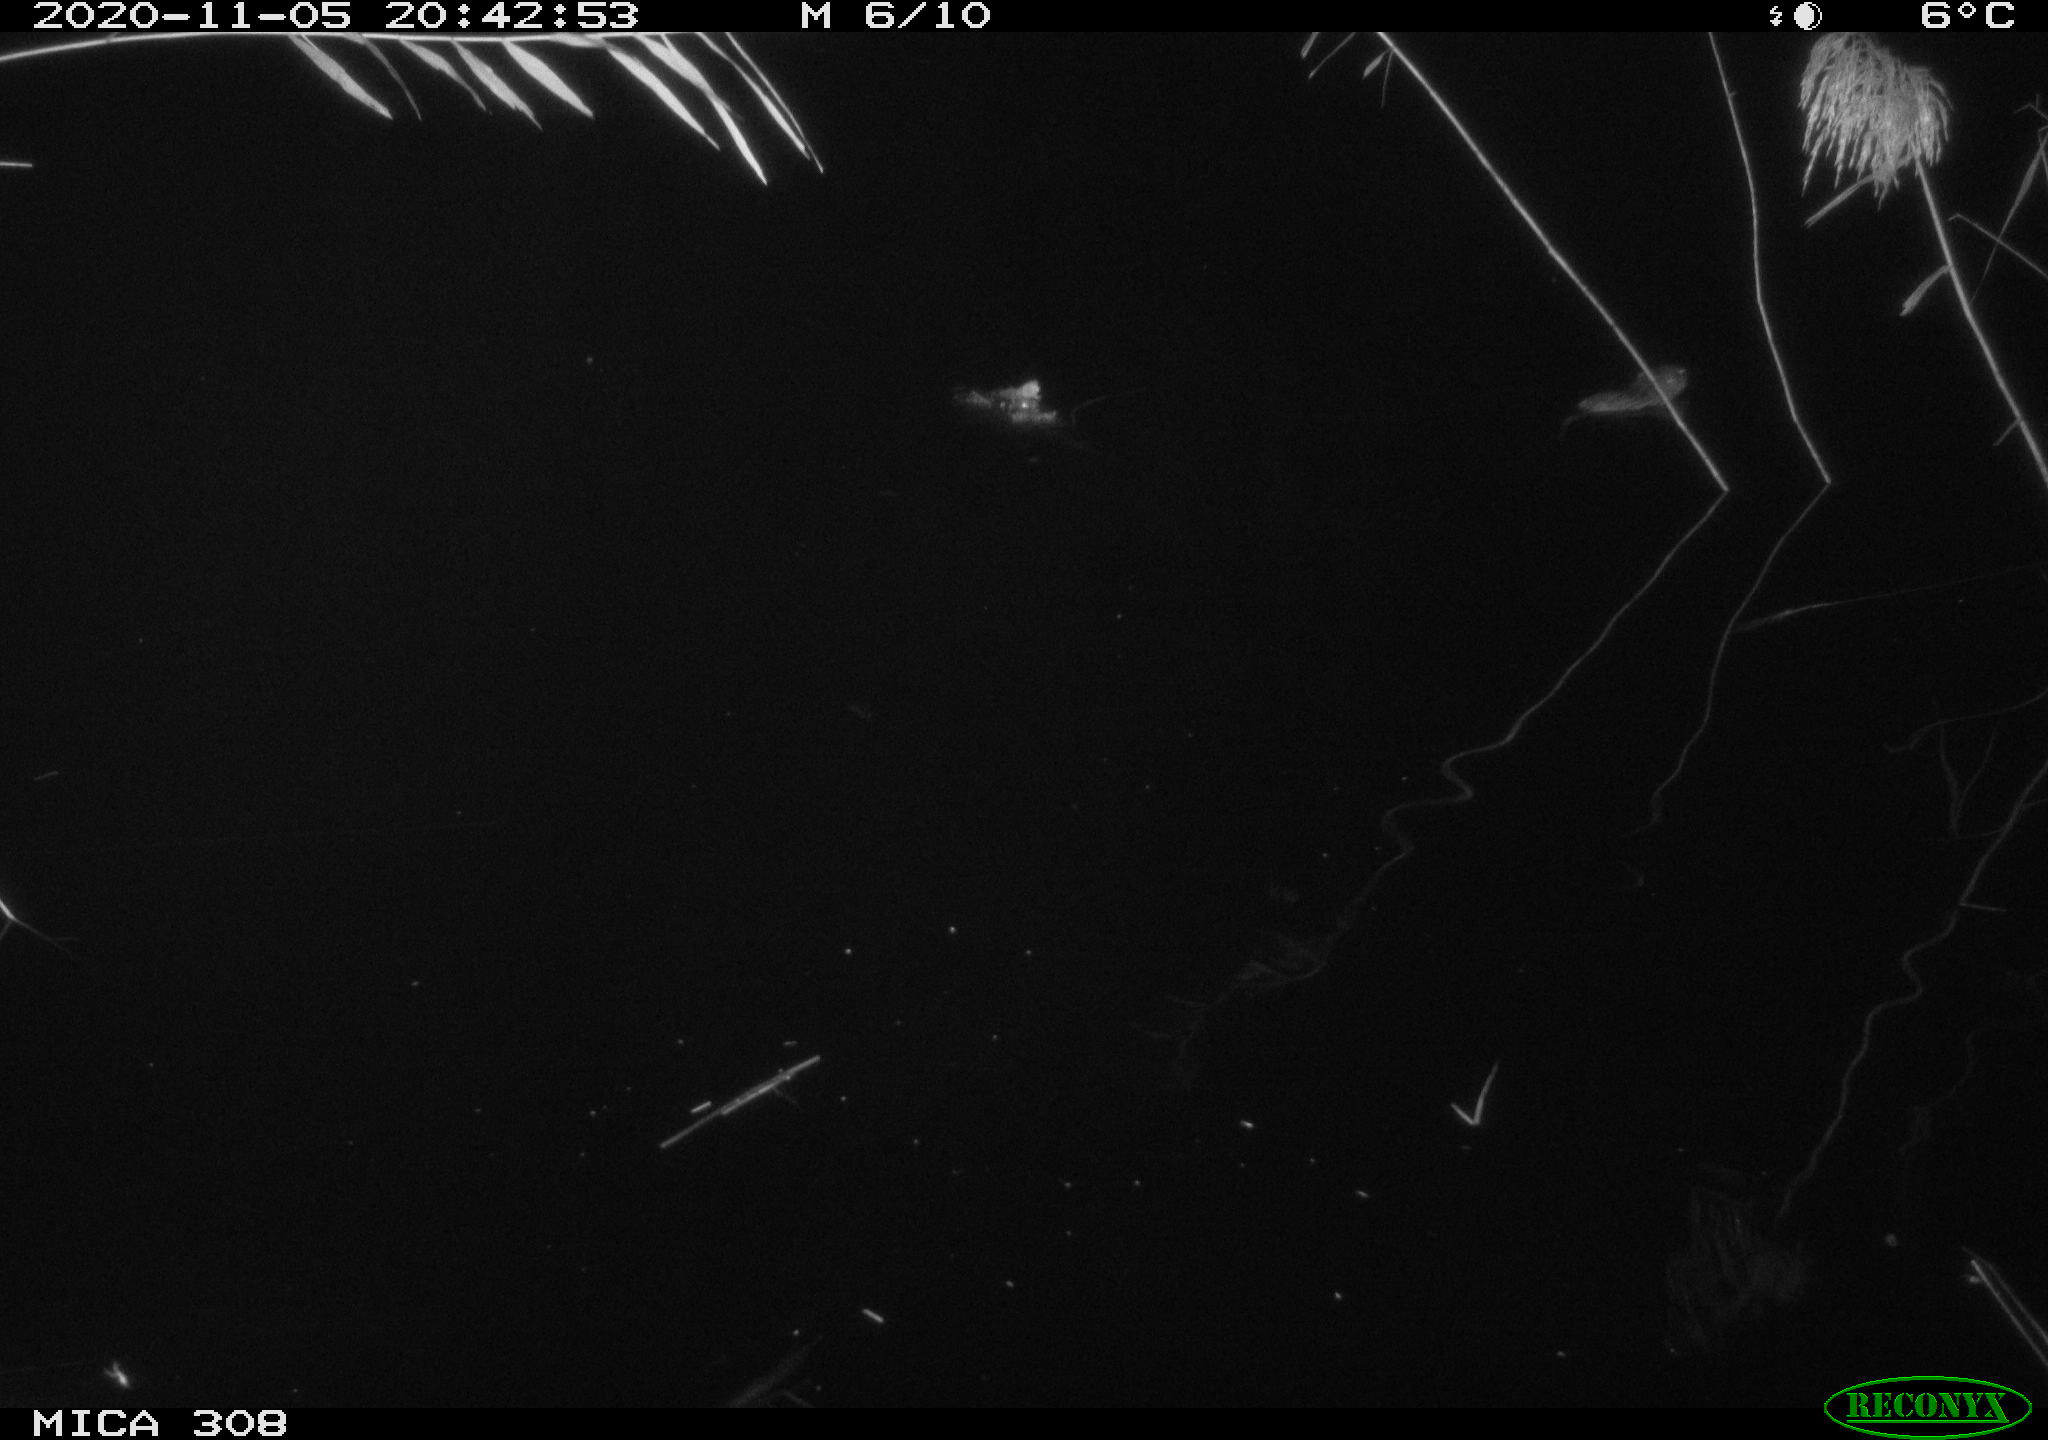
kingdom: Animalia
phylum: Chordata
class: Mammalia
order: Rodentia
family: Muridae
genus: Rattus
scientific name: Rattus norvegicus
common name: Brown rat
